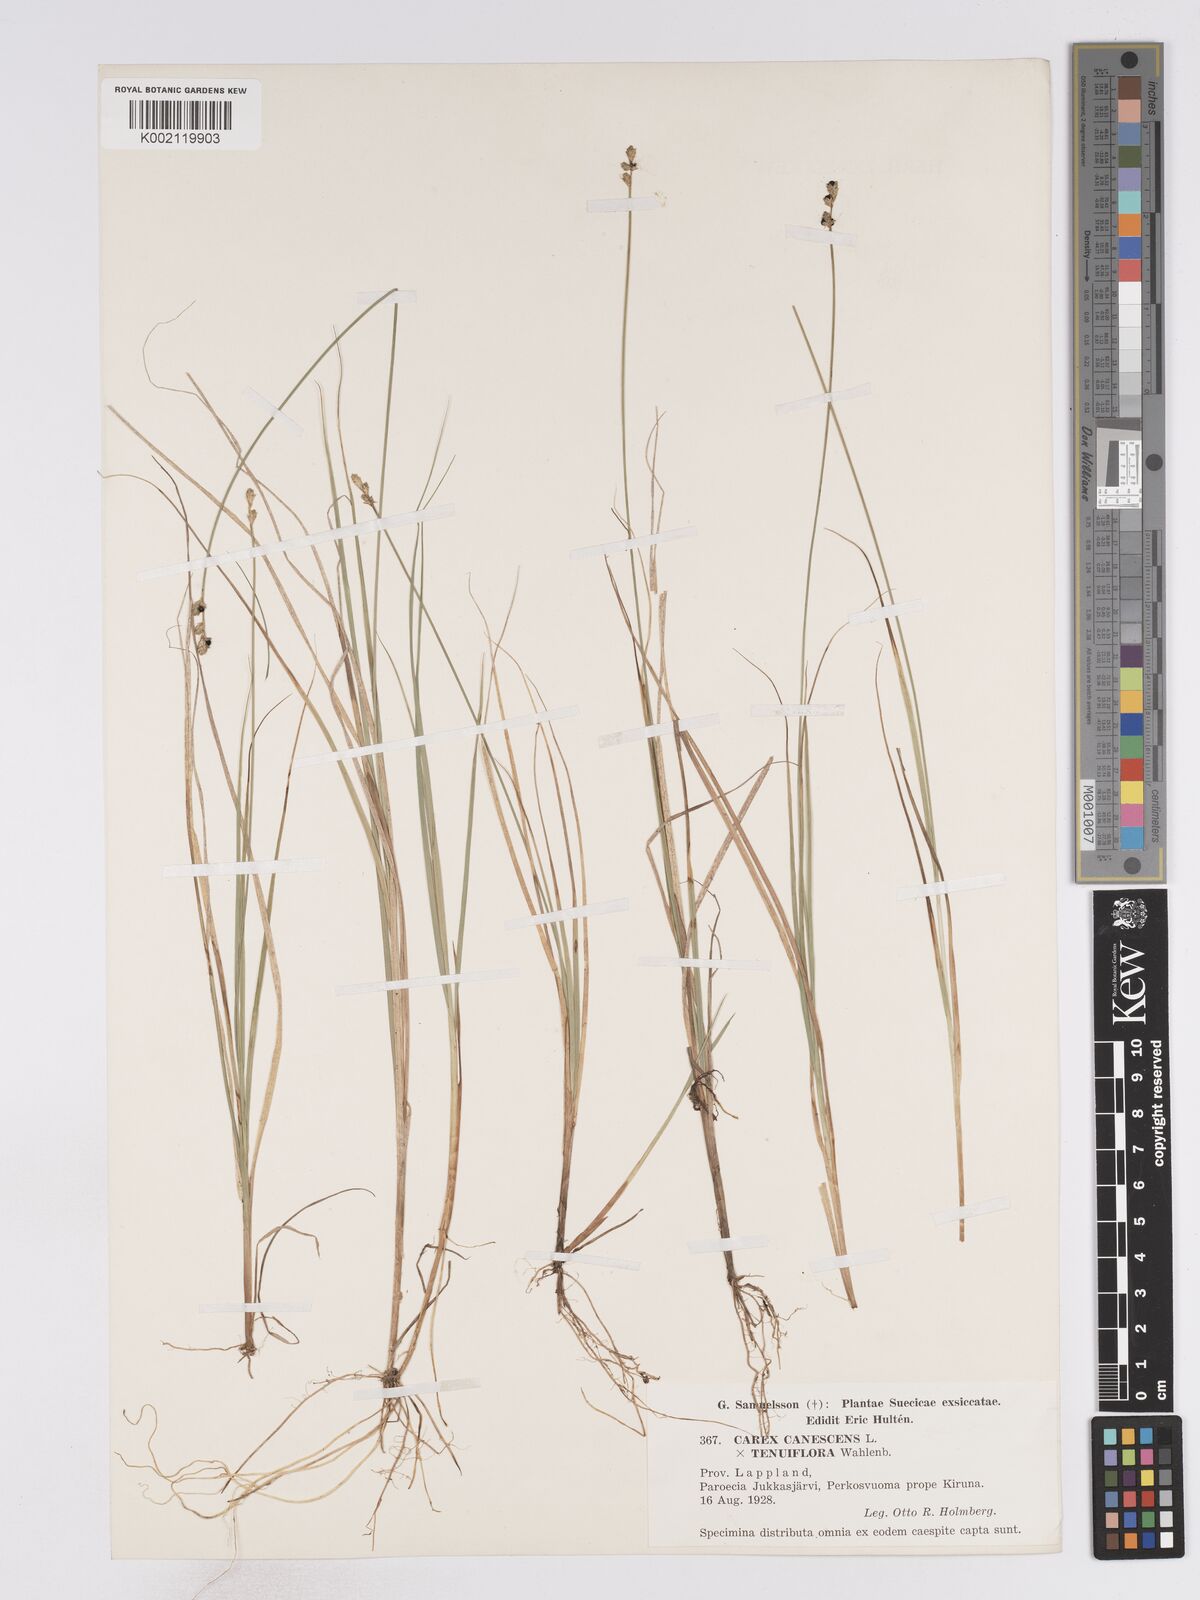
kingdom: Plantae
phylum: Tracheophyta
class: Liliopsida
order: Poales
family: Cyperaceae
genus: Carex
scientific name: Carex curta
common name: White sedge
